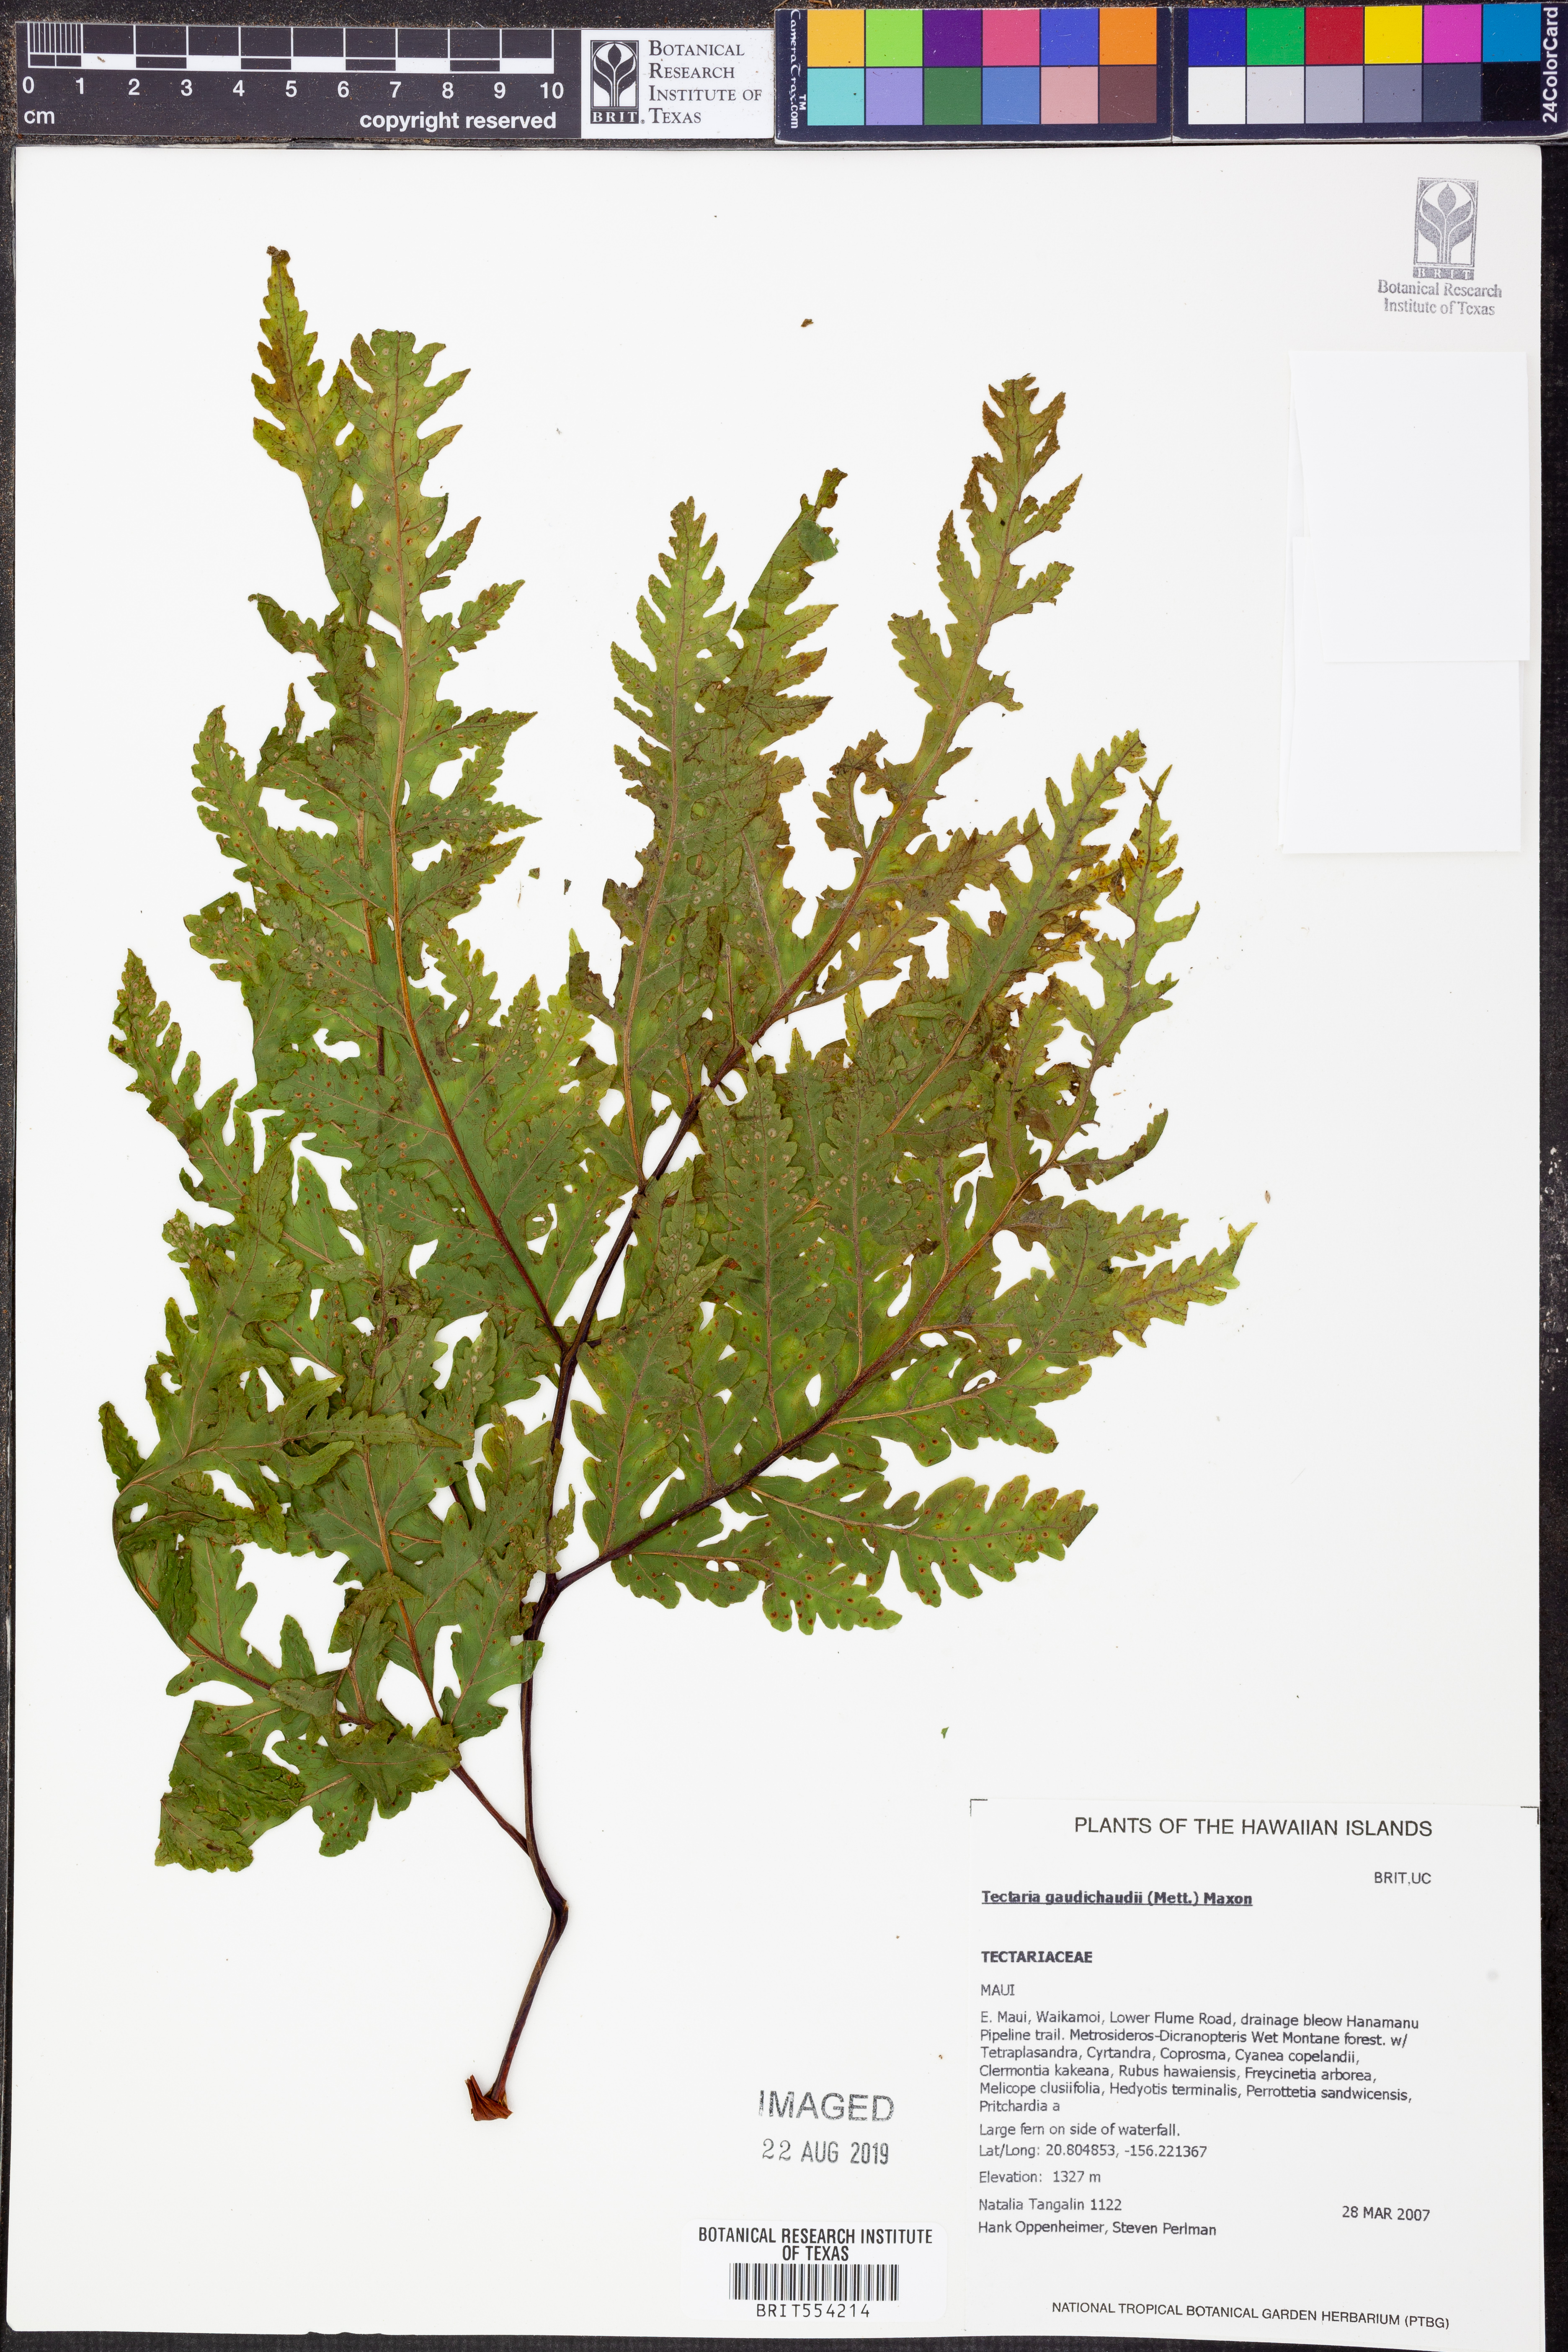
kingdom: Plantae
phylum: Tracheophyta
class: Polypodiopsida
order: Polypodiales
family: Tectariaceae
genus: Tectaria
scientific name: Tectaria gaudichaudii
